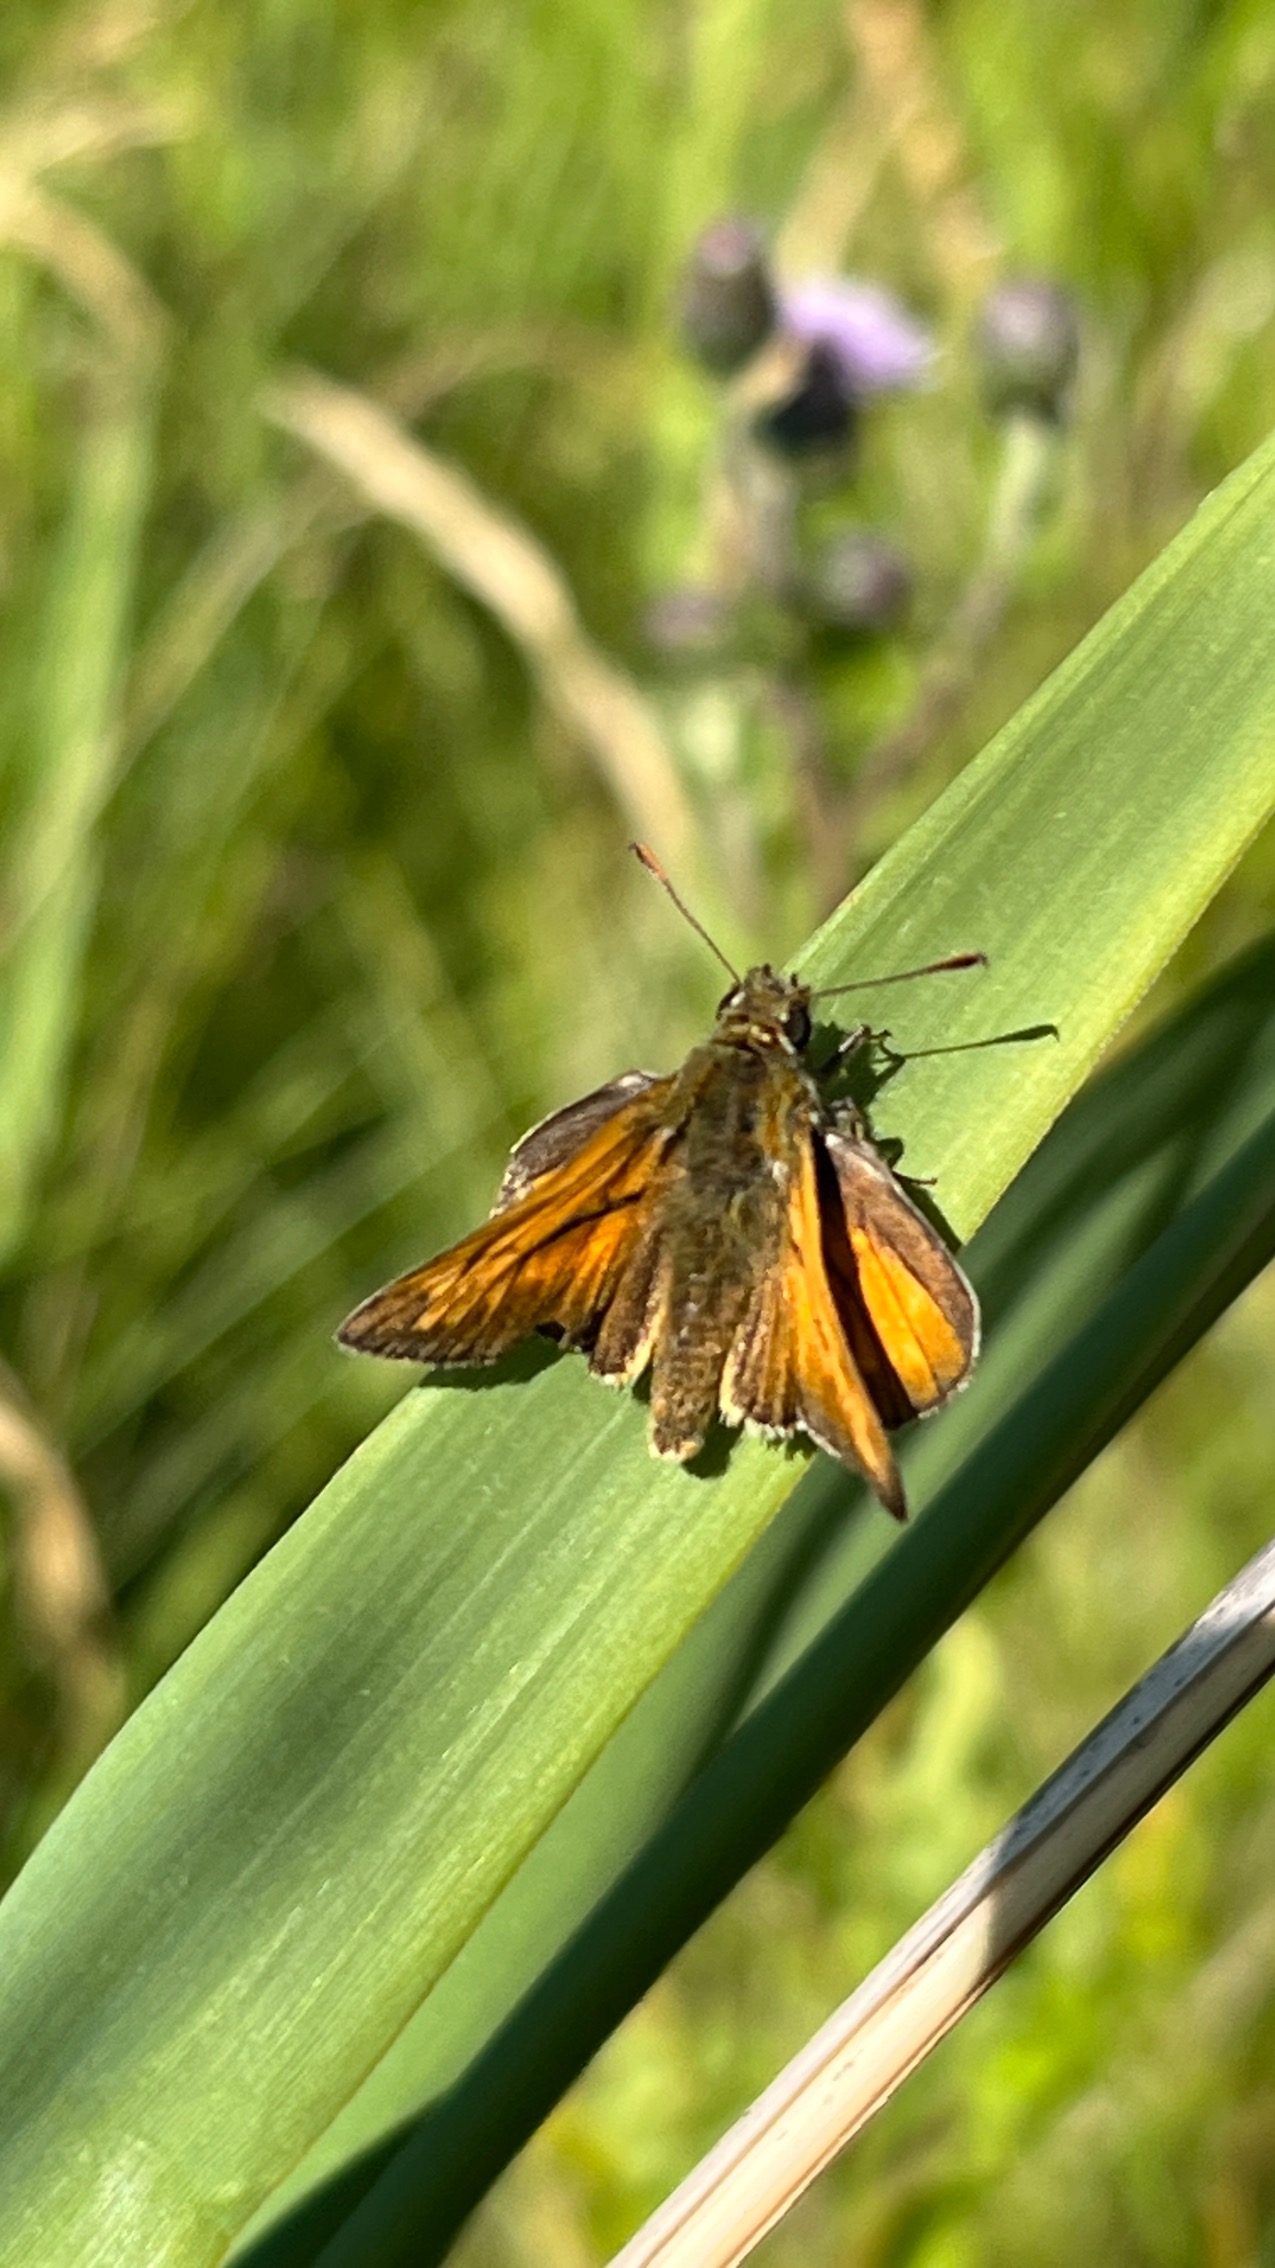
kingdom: Animalia
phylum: Arthropoda
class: Insecta
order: Lepidoptera
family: Hesperiidae
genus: Ochlodes
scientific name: Ochlodes venata
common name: Stor bredpande
